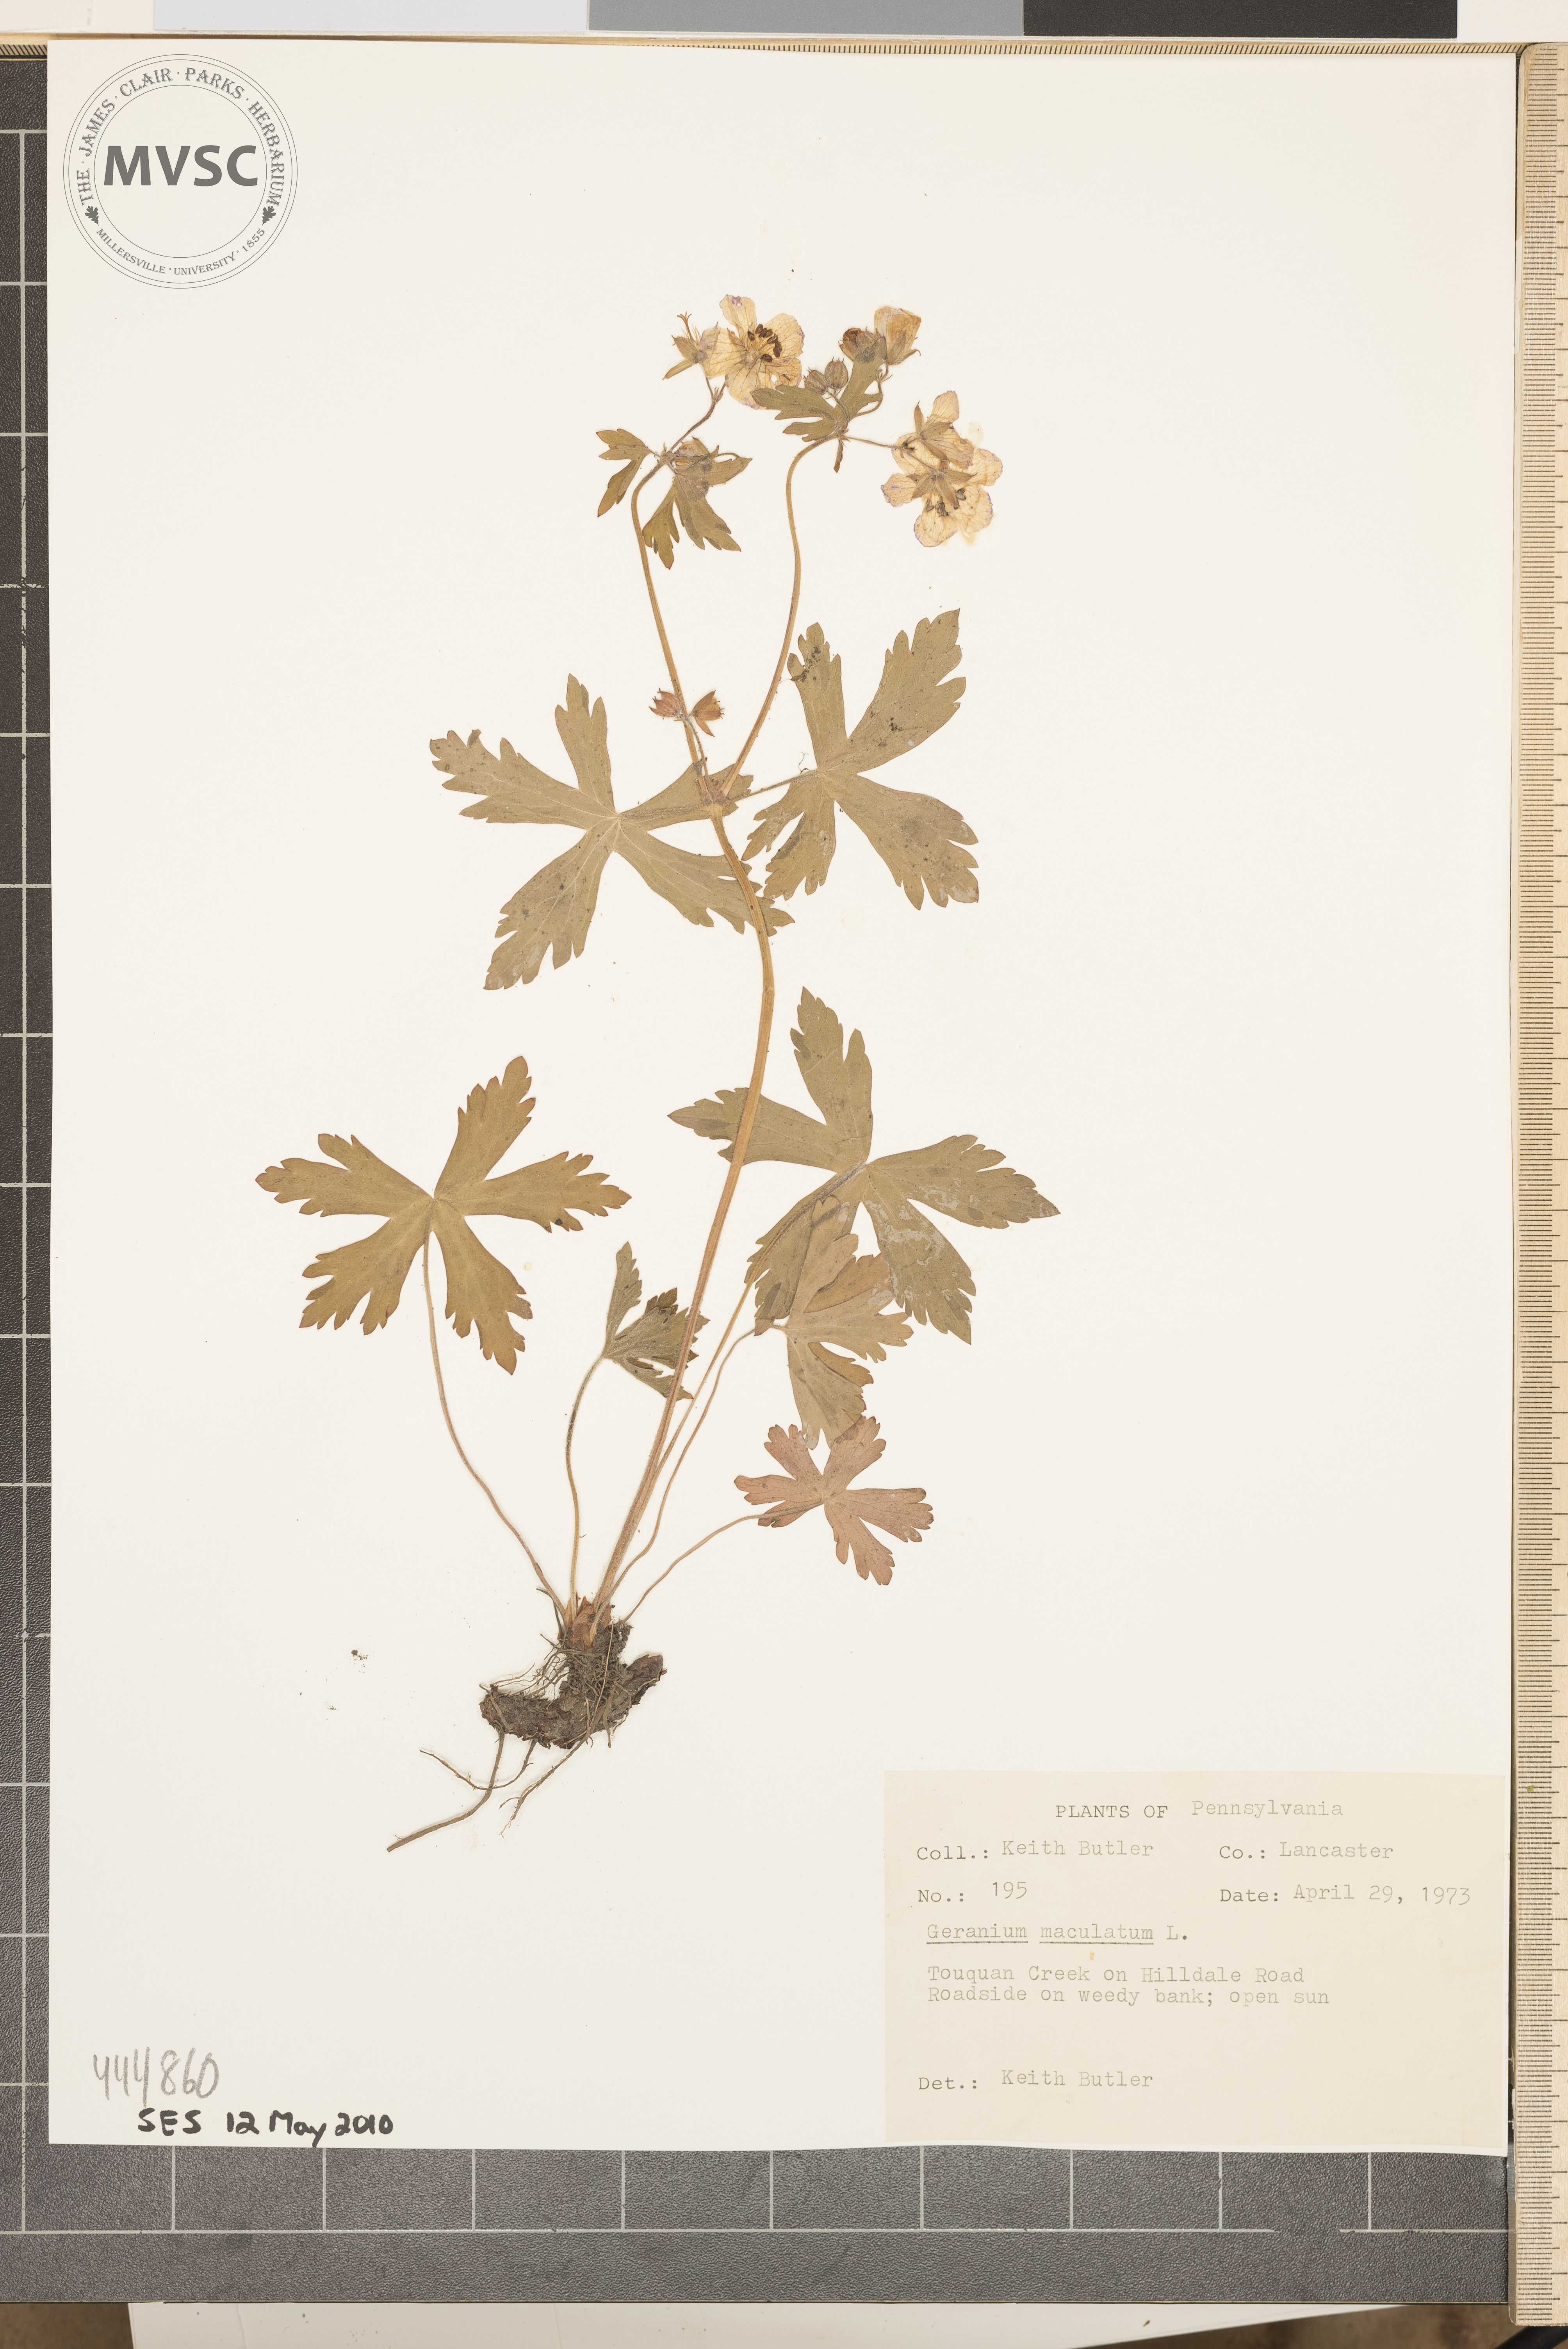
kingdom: Plantae
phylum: Tracheophyta
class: Magnoliopsida
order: Geraniales
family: Geraniaceae
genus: Geranium
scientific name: Geranium maculatum
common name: Spotted geranium
